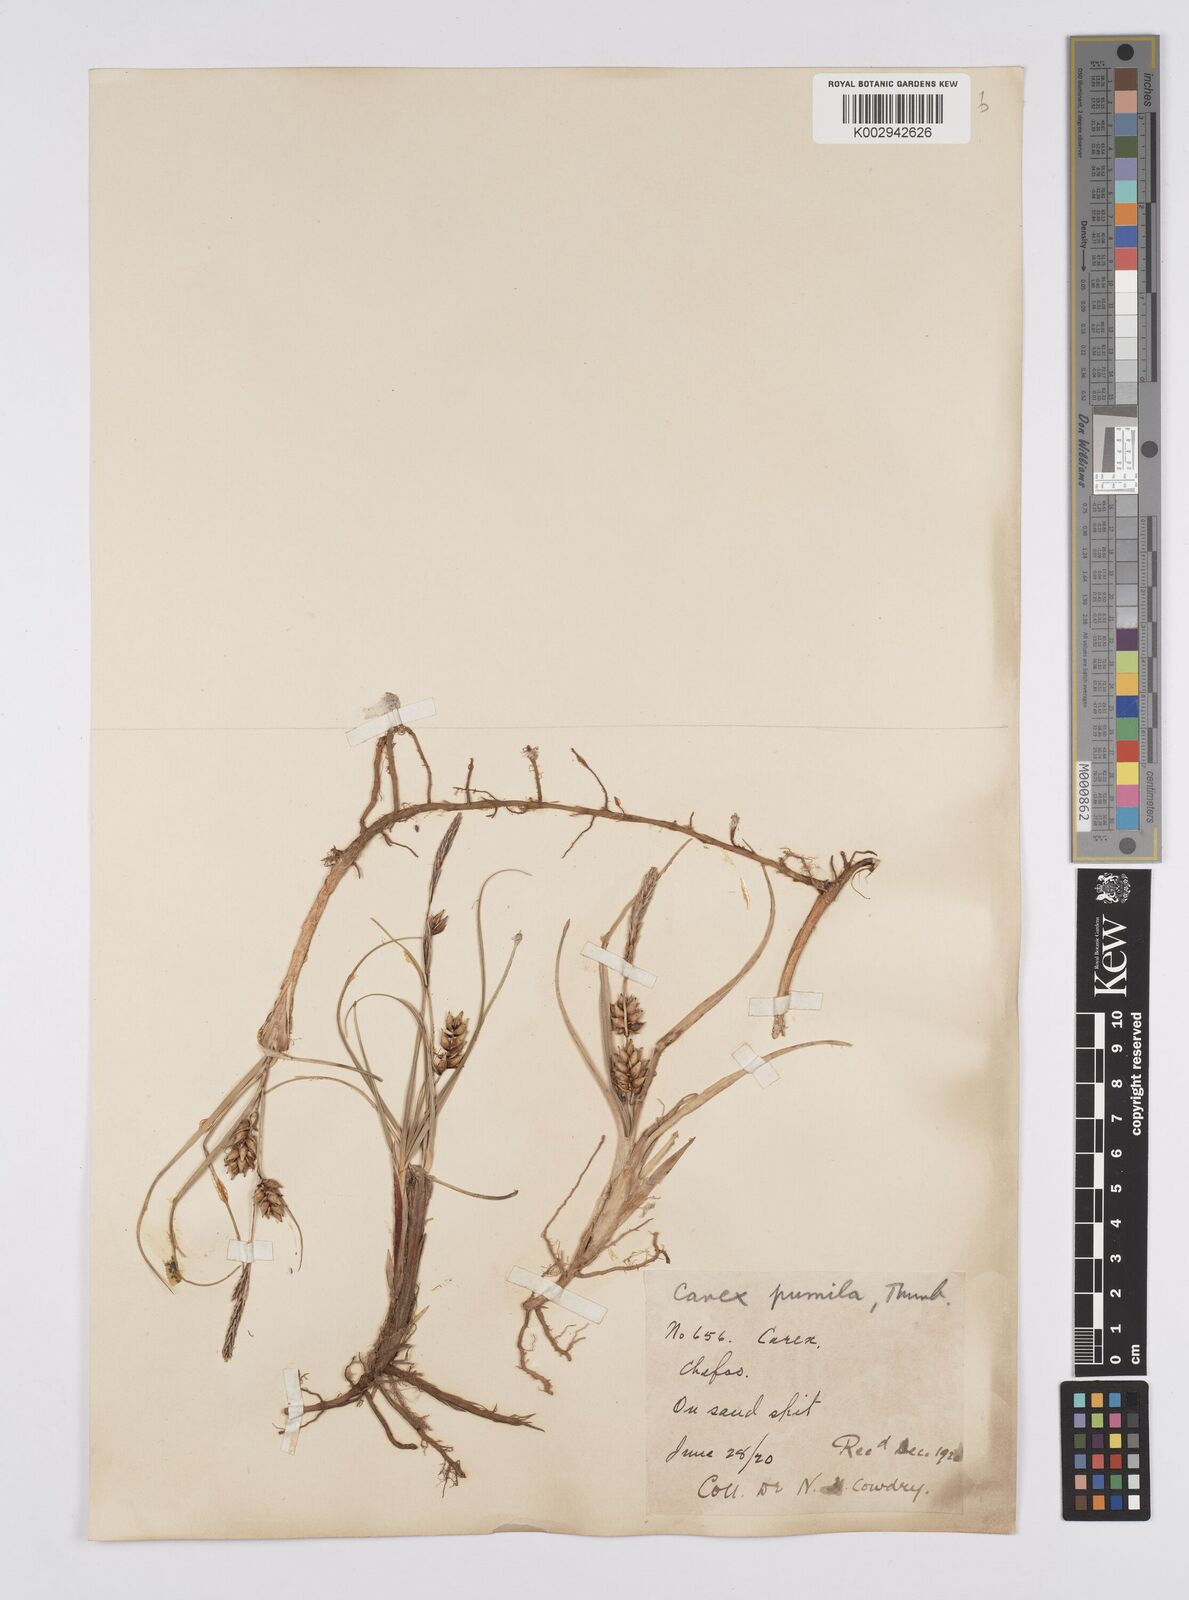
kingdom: Plantae
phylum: Tracheophyta
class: Liliopsida
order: Poales
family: Cyperaceae
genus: Carex
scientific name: Carex pumila
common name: Dwarf sedge
